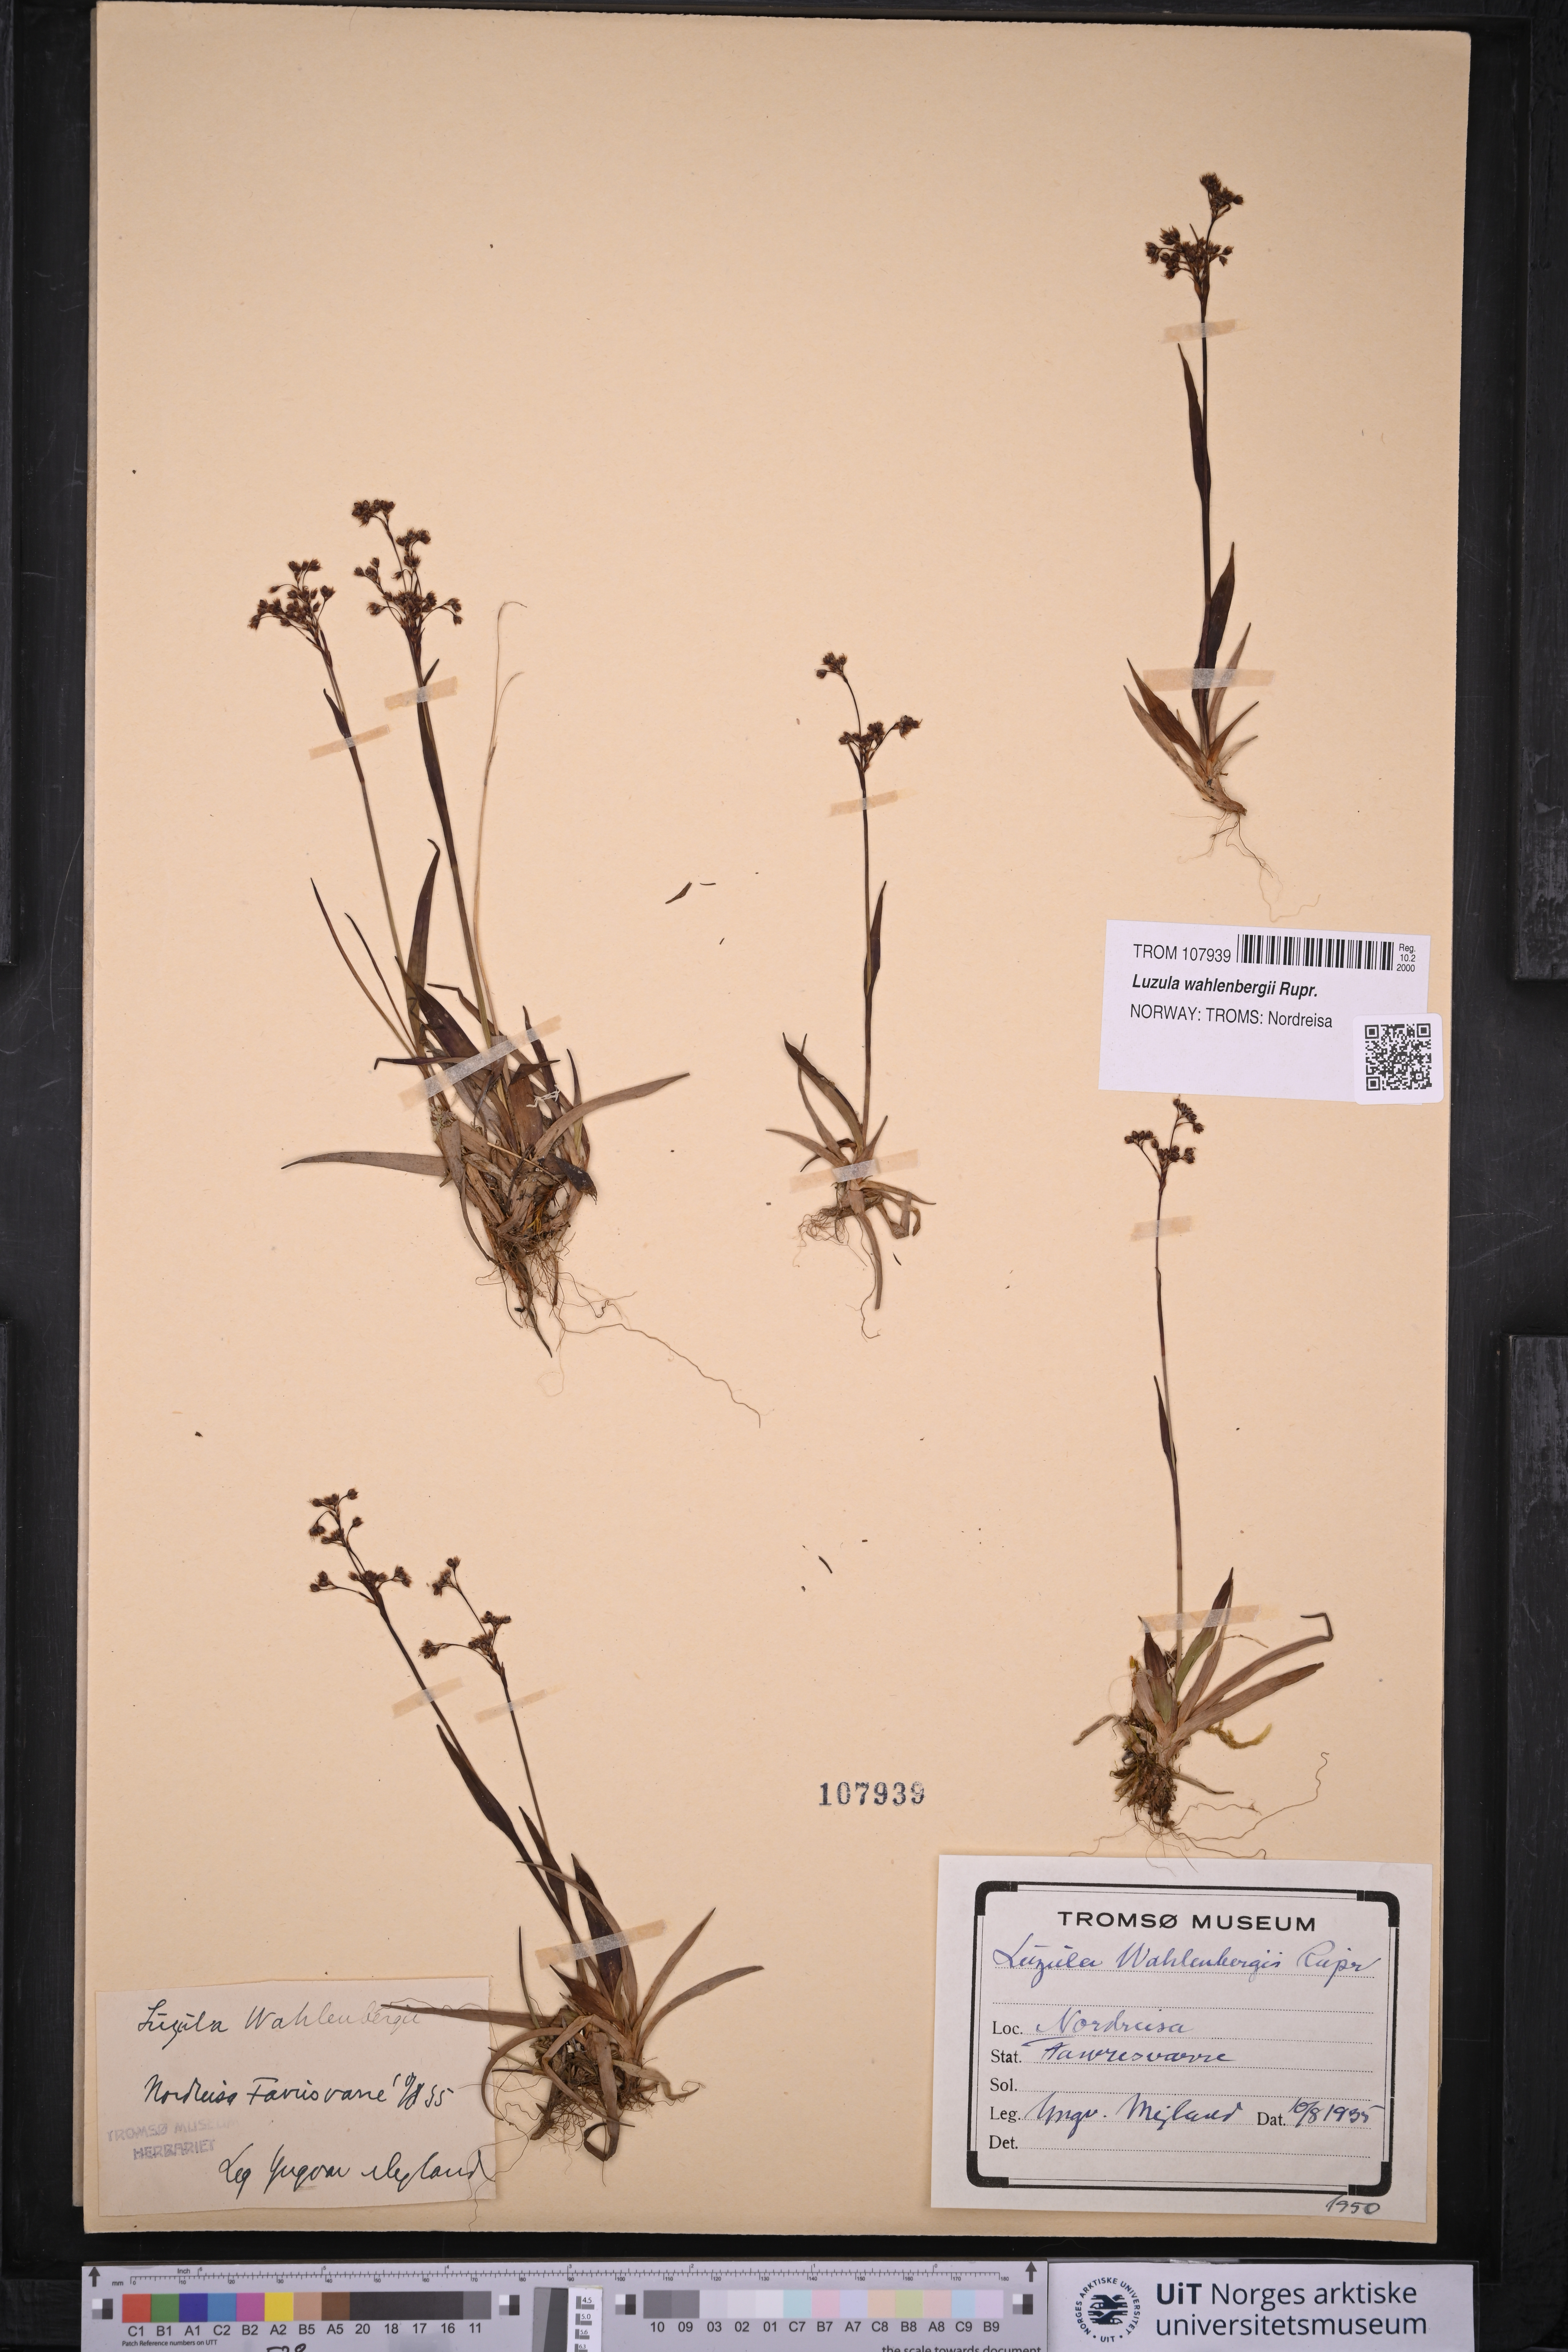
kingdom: Plantae
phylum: Tracheophyta
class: Liliopsida
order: Poales
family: Juncaceae
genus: Luzula
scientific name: Luzula wahlenbergii
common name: Wahlenberg's wood-rush
